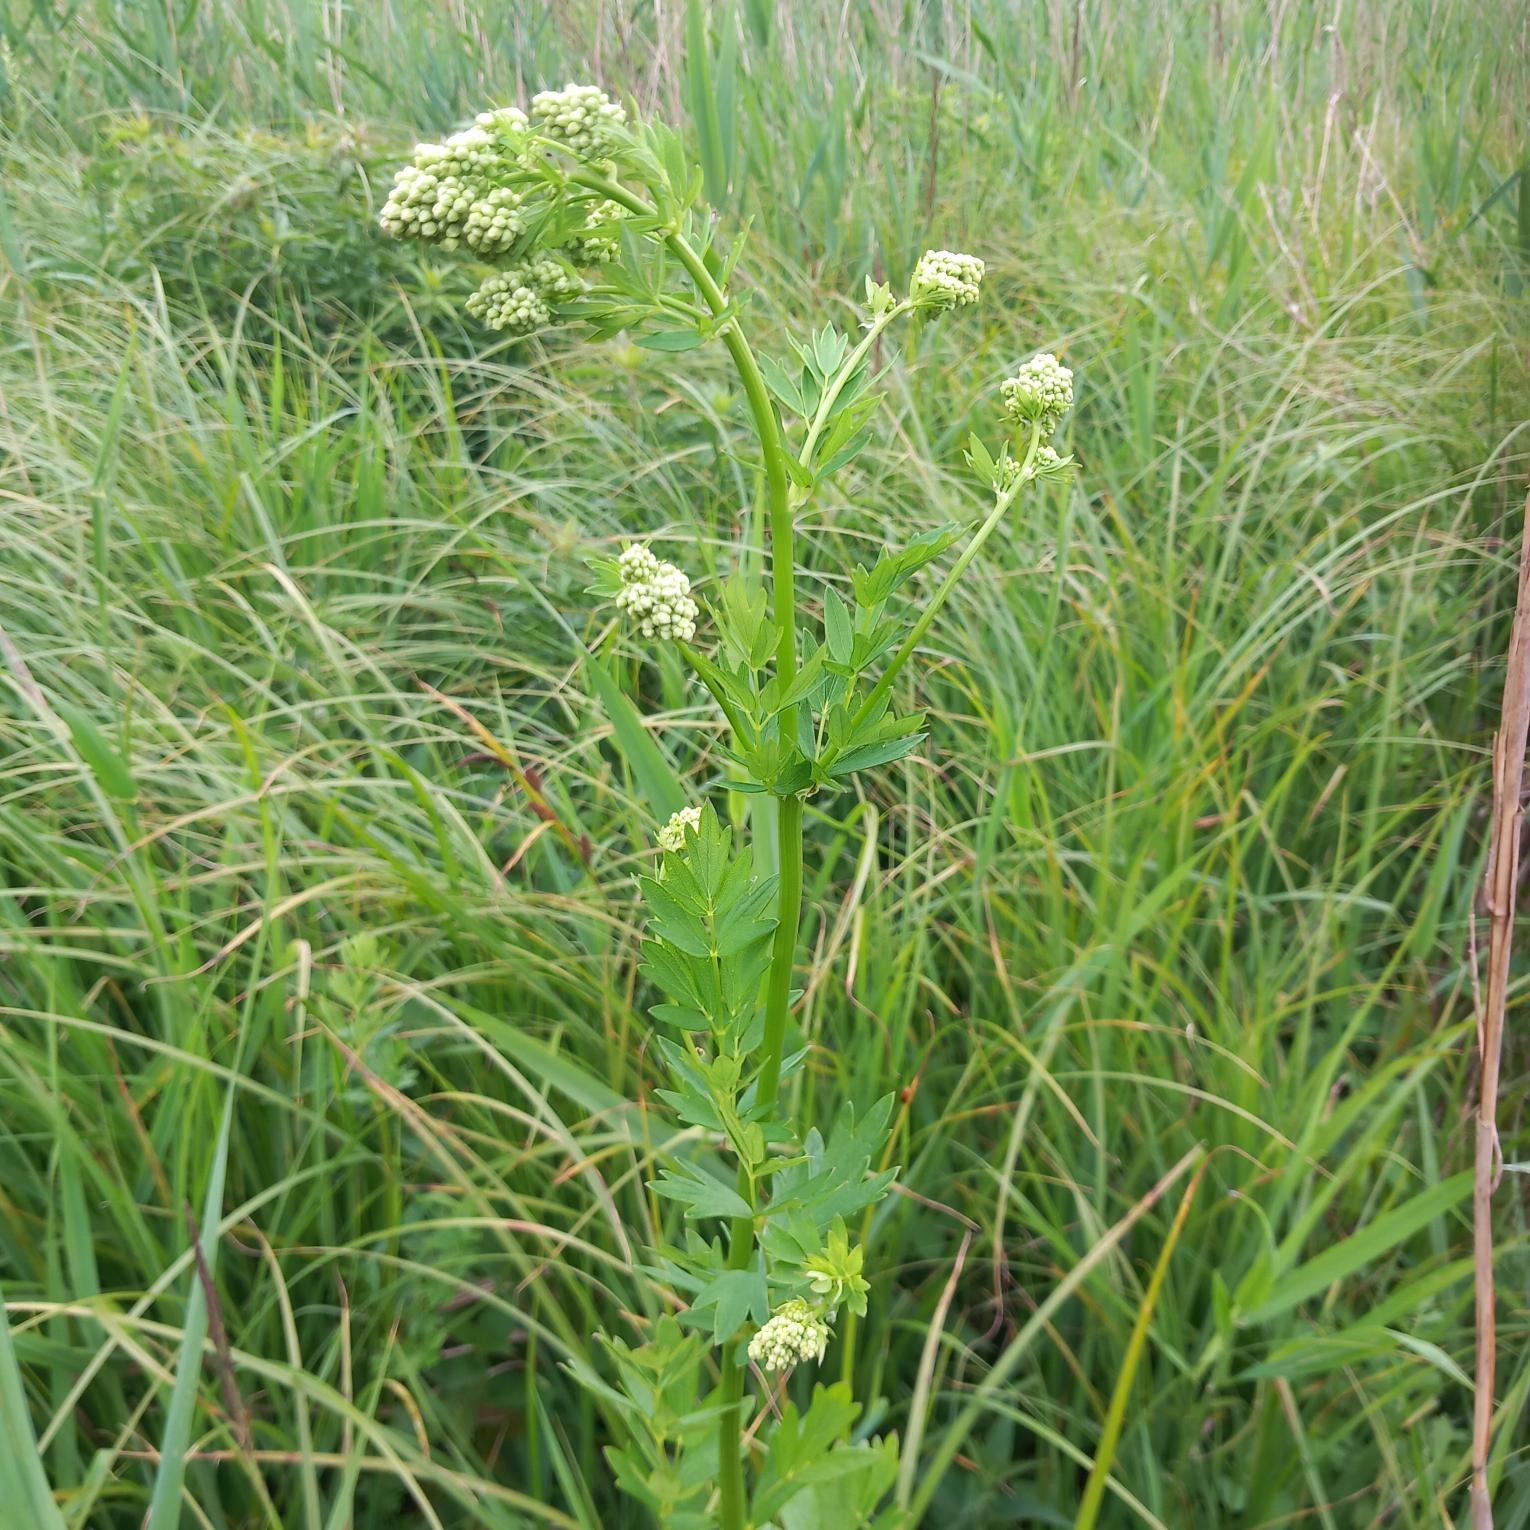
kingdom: Plantae
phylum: Tracheophyta
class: Magnoliopsida
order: Ranunculales
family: Ranunculaceae
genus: Thalictrum
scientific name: Thalictrum flavum
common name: Gul frøstjerne
